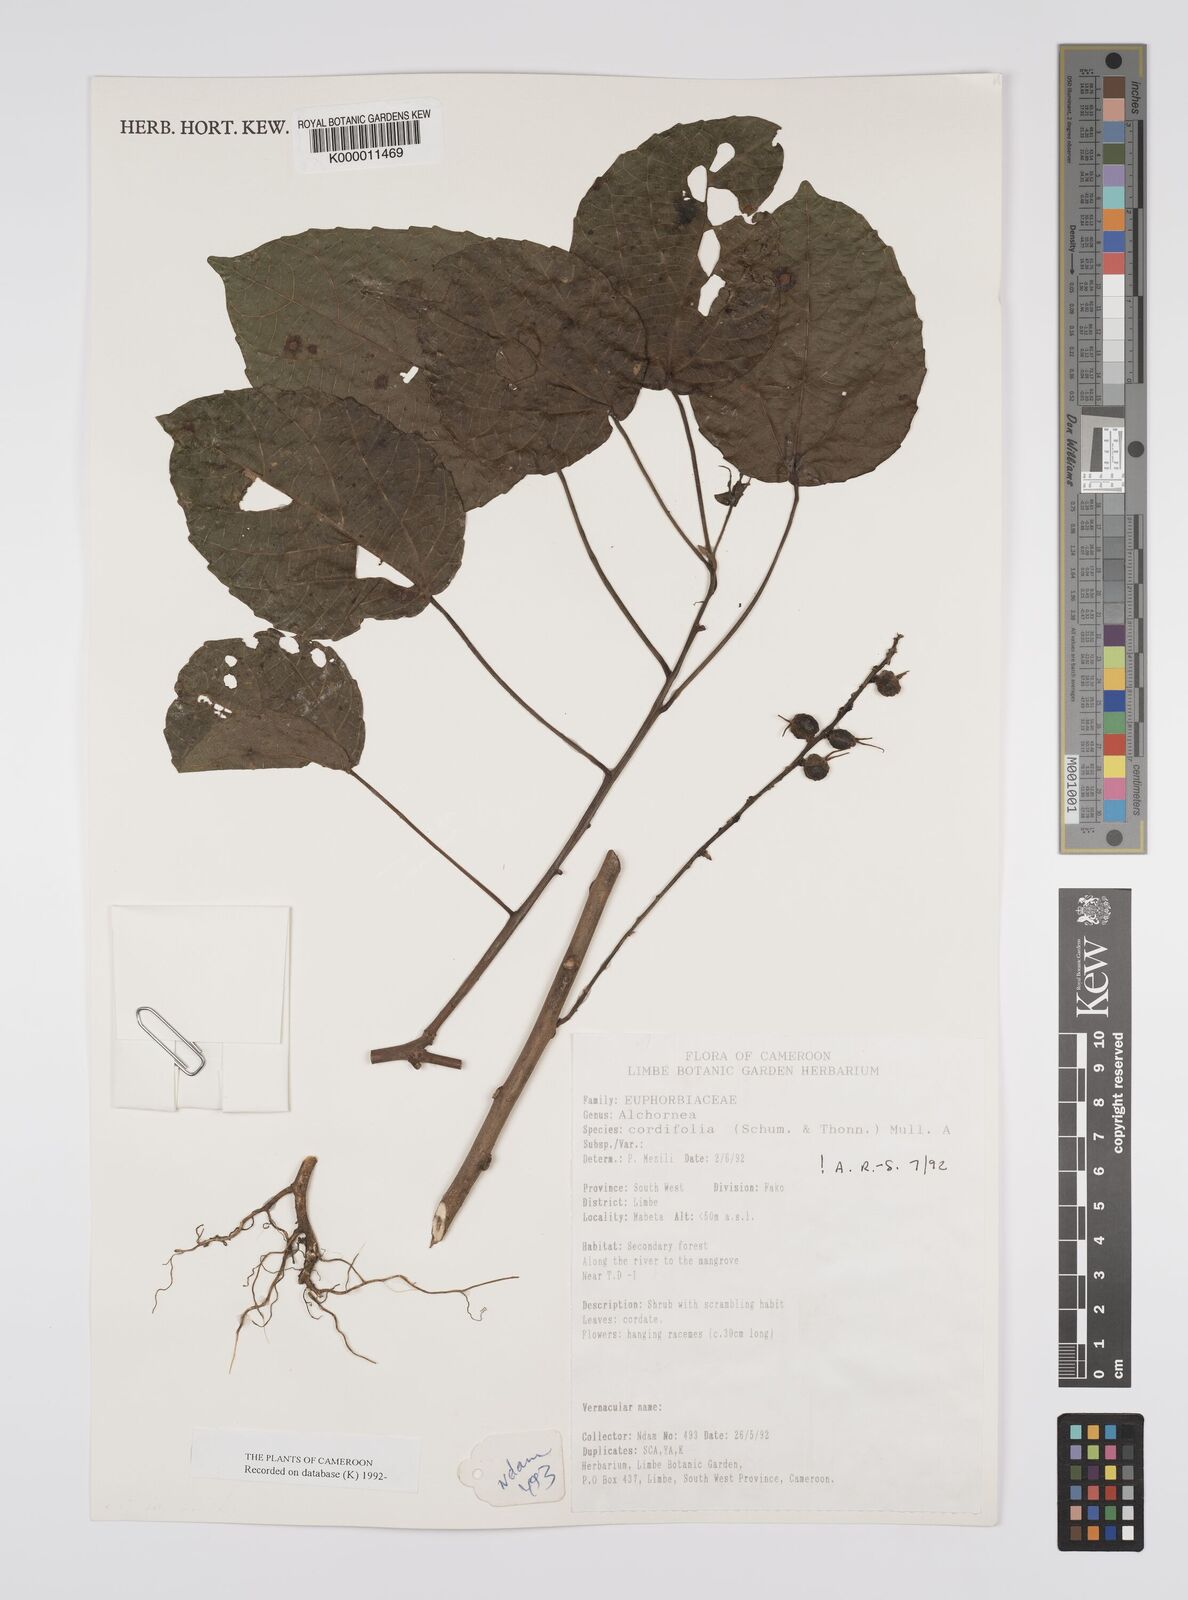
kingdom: Plantae
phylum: Tracheophyta
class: Magnoliopsida
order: Malpighiales
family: Euphorbiaceae
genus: Alchornea
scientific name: Alchornea
